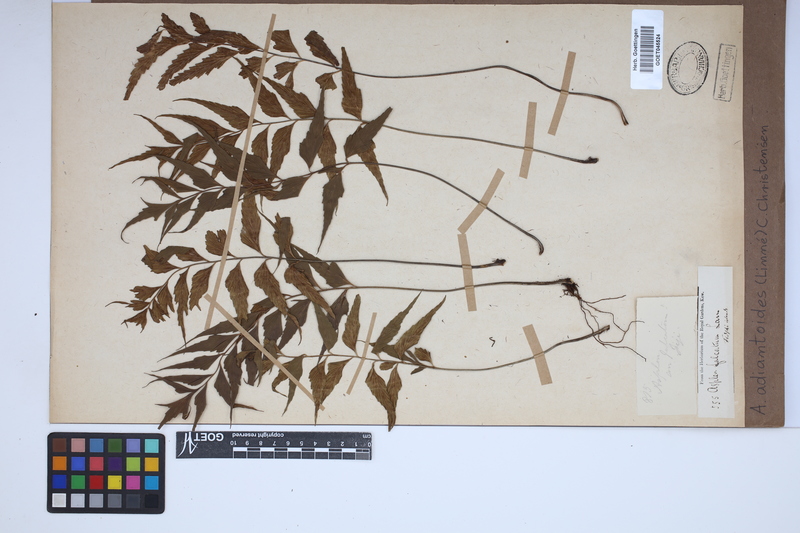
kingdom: Plantae
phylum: Tracheophyta
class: Polypodiopsida
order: Polypodiales
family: Aspleniaceae
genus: Asplenium
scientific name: Asplenium aethiopicum
